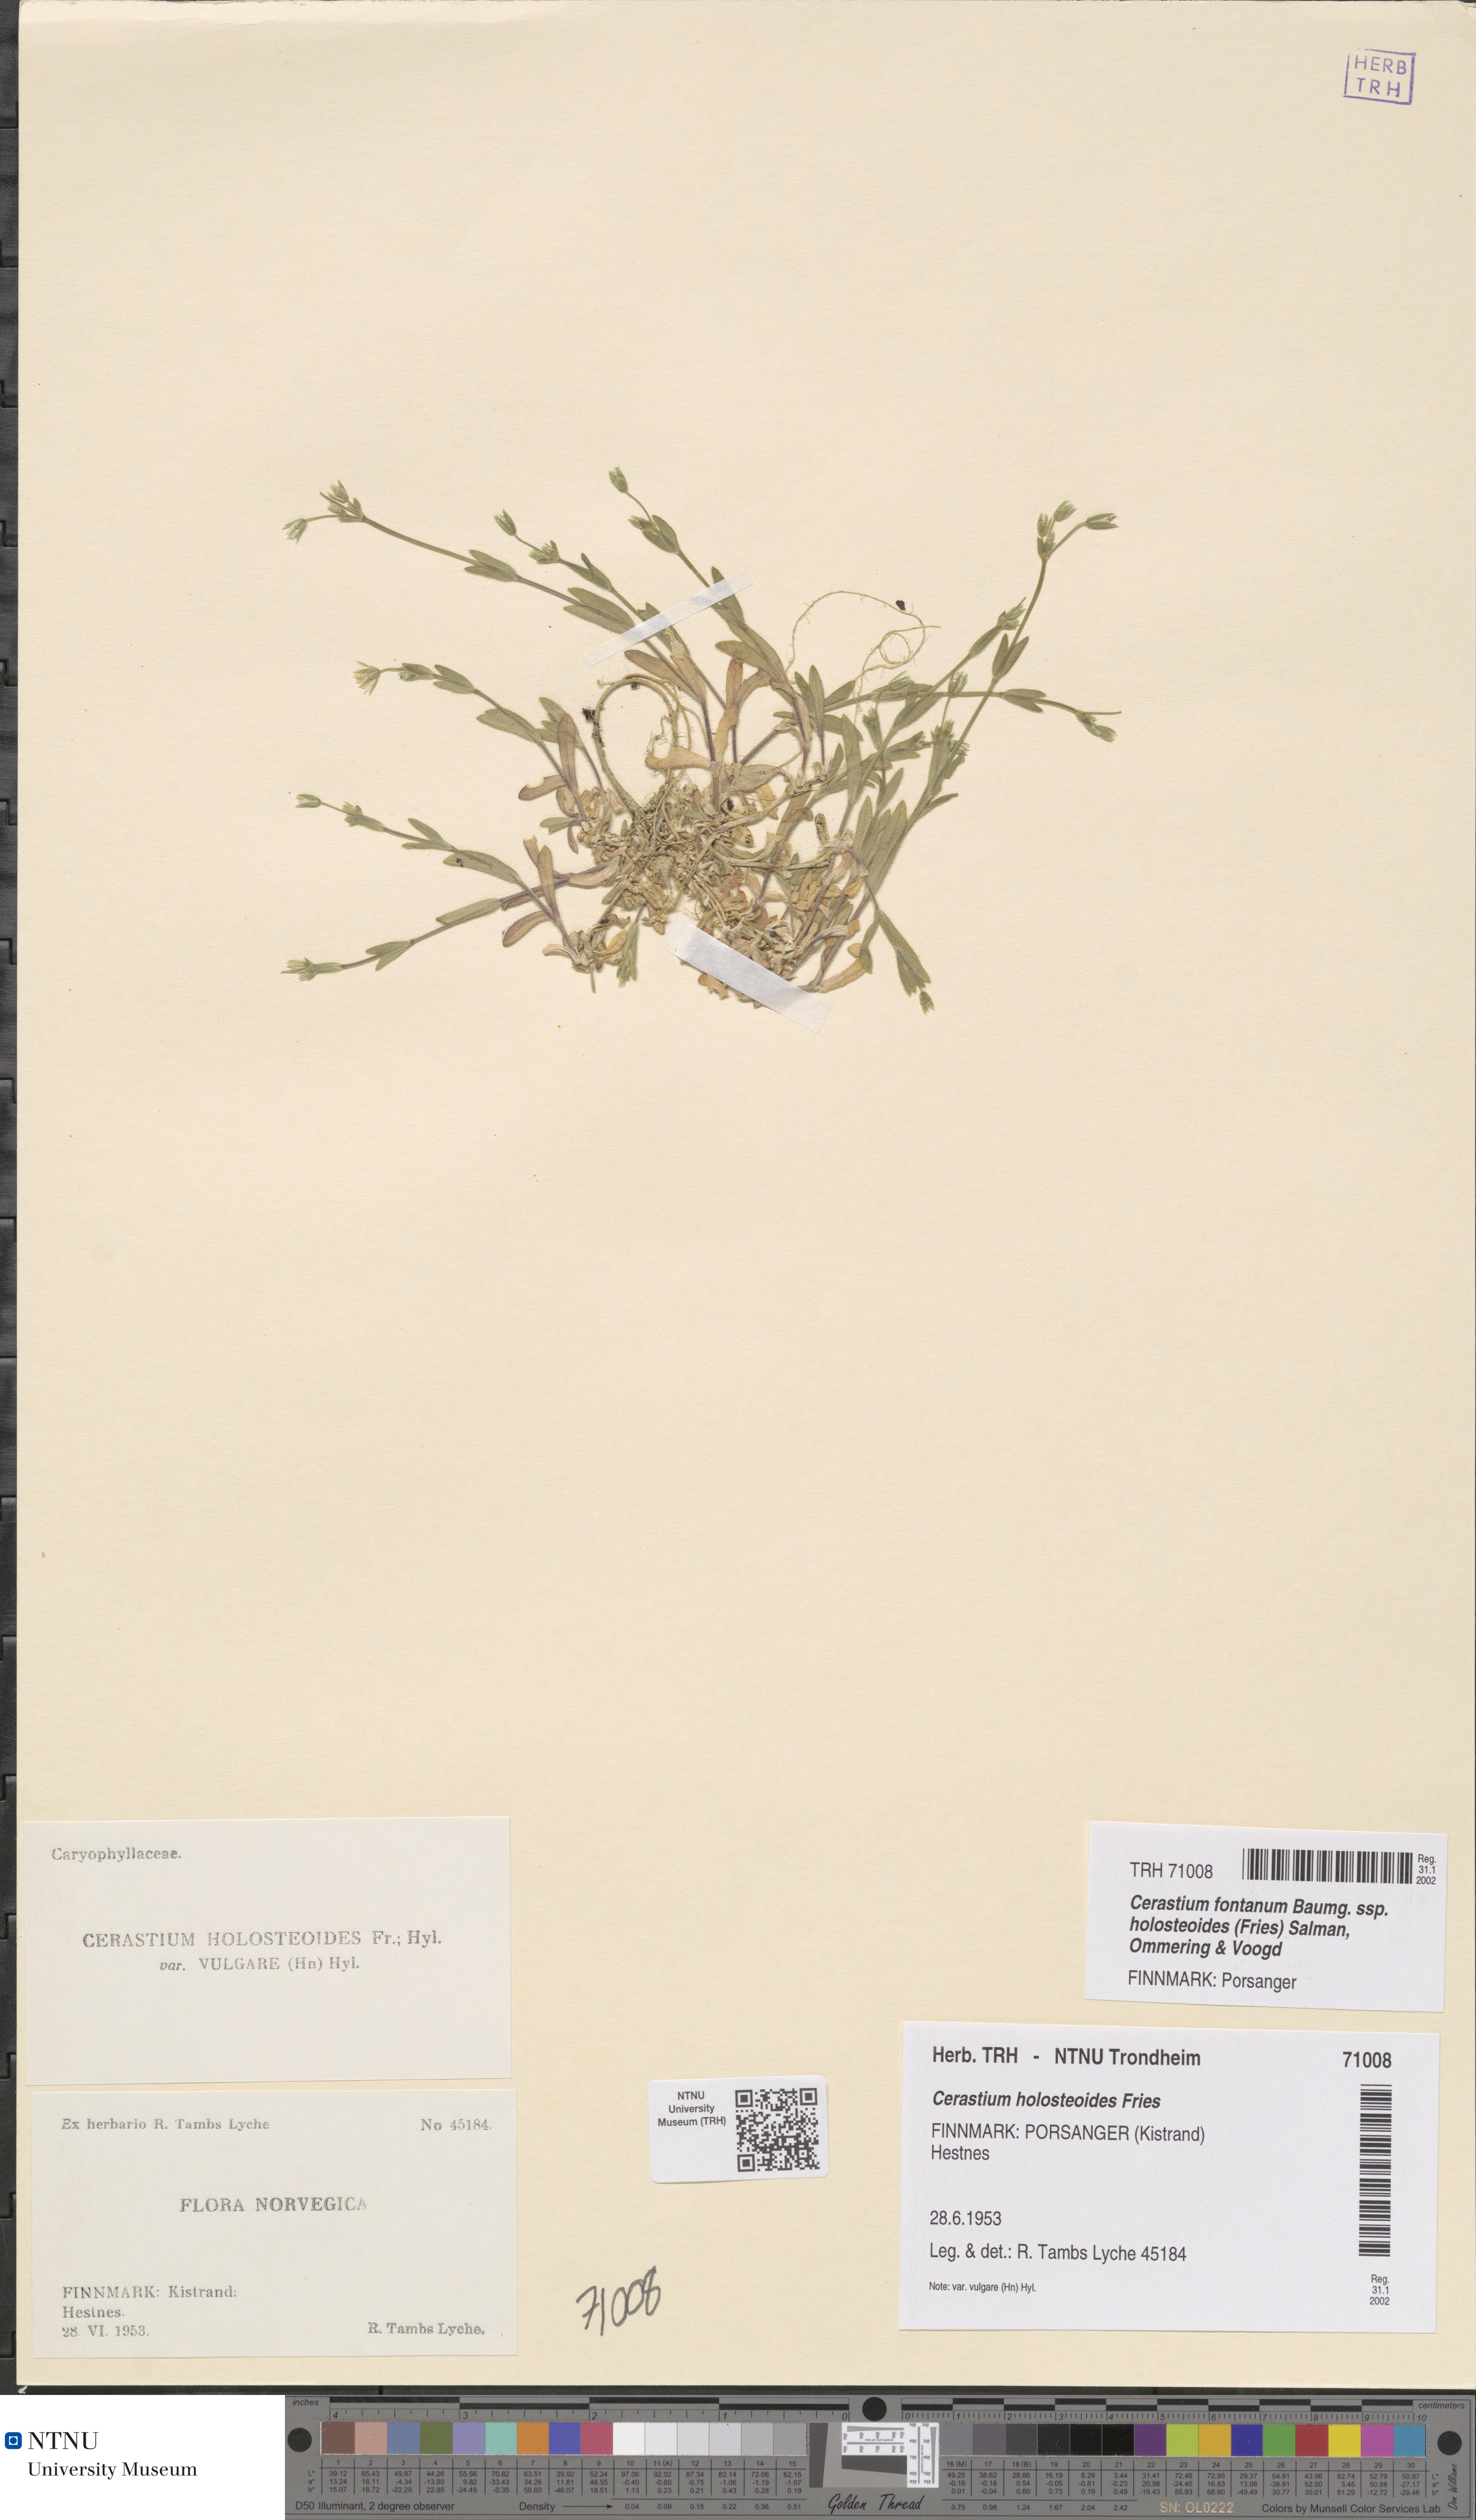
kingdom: Plantae
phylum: Tracheophyta
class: Magnoliopsida
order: Caryophyllales
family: Caryophyllaceae
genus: Cerastium
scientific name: Cerastium holosteoides
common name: Big chickweed
